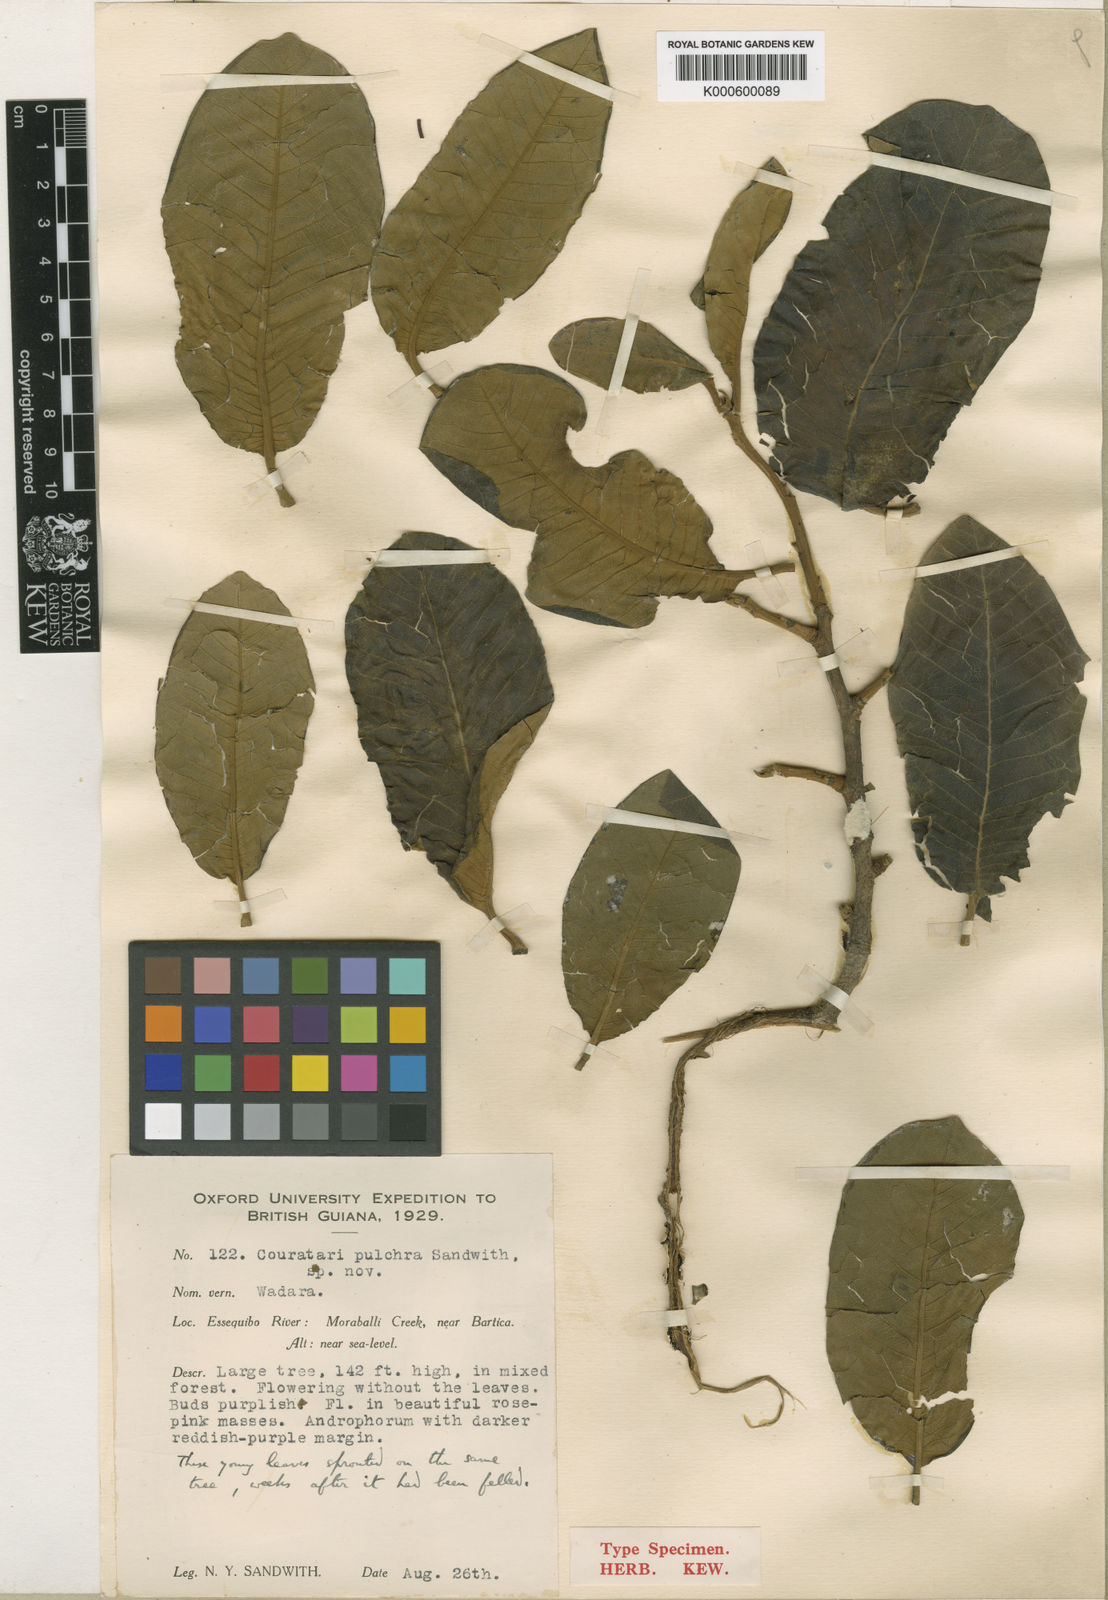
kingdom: Plantae
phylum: Tracheophyta
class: Magnoliopsida
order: Ericales
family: Lecythidaceae
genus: Couratari
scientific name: Couratari guianensis
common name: Fine-leaf wadara
